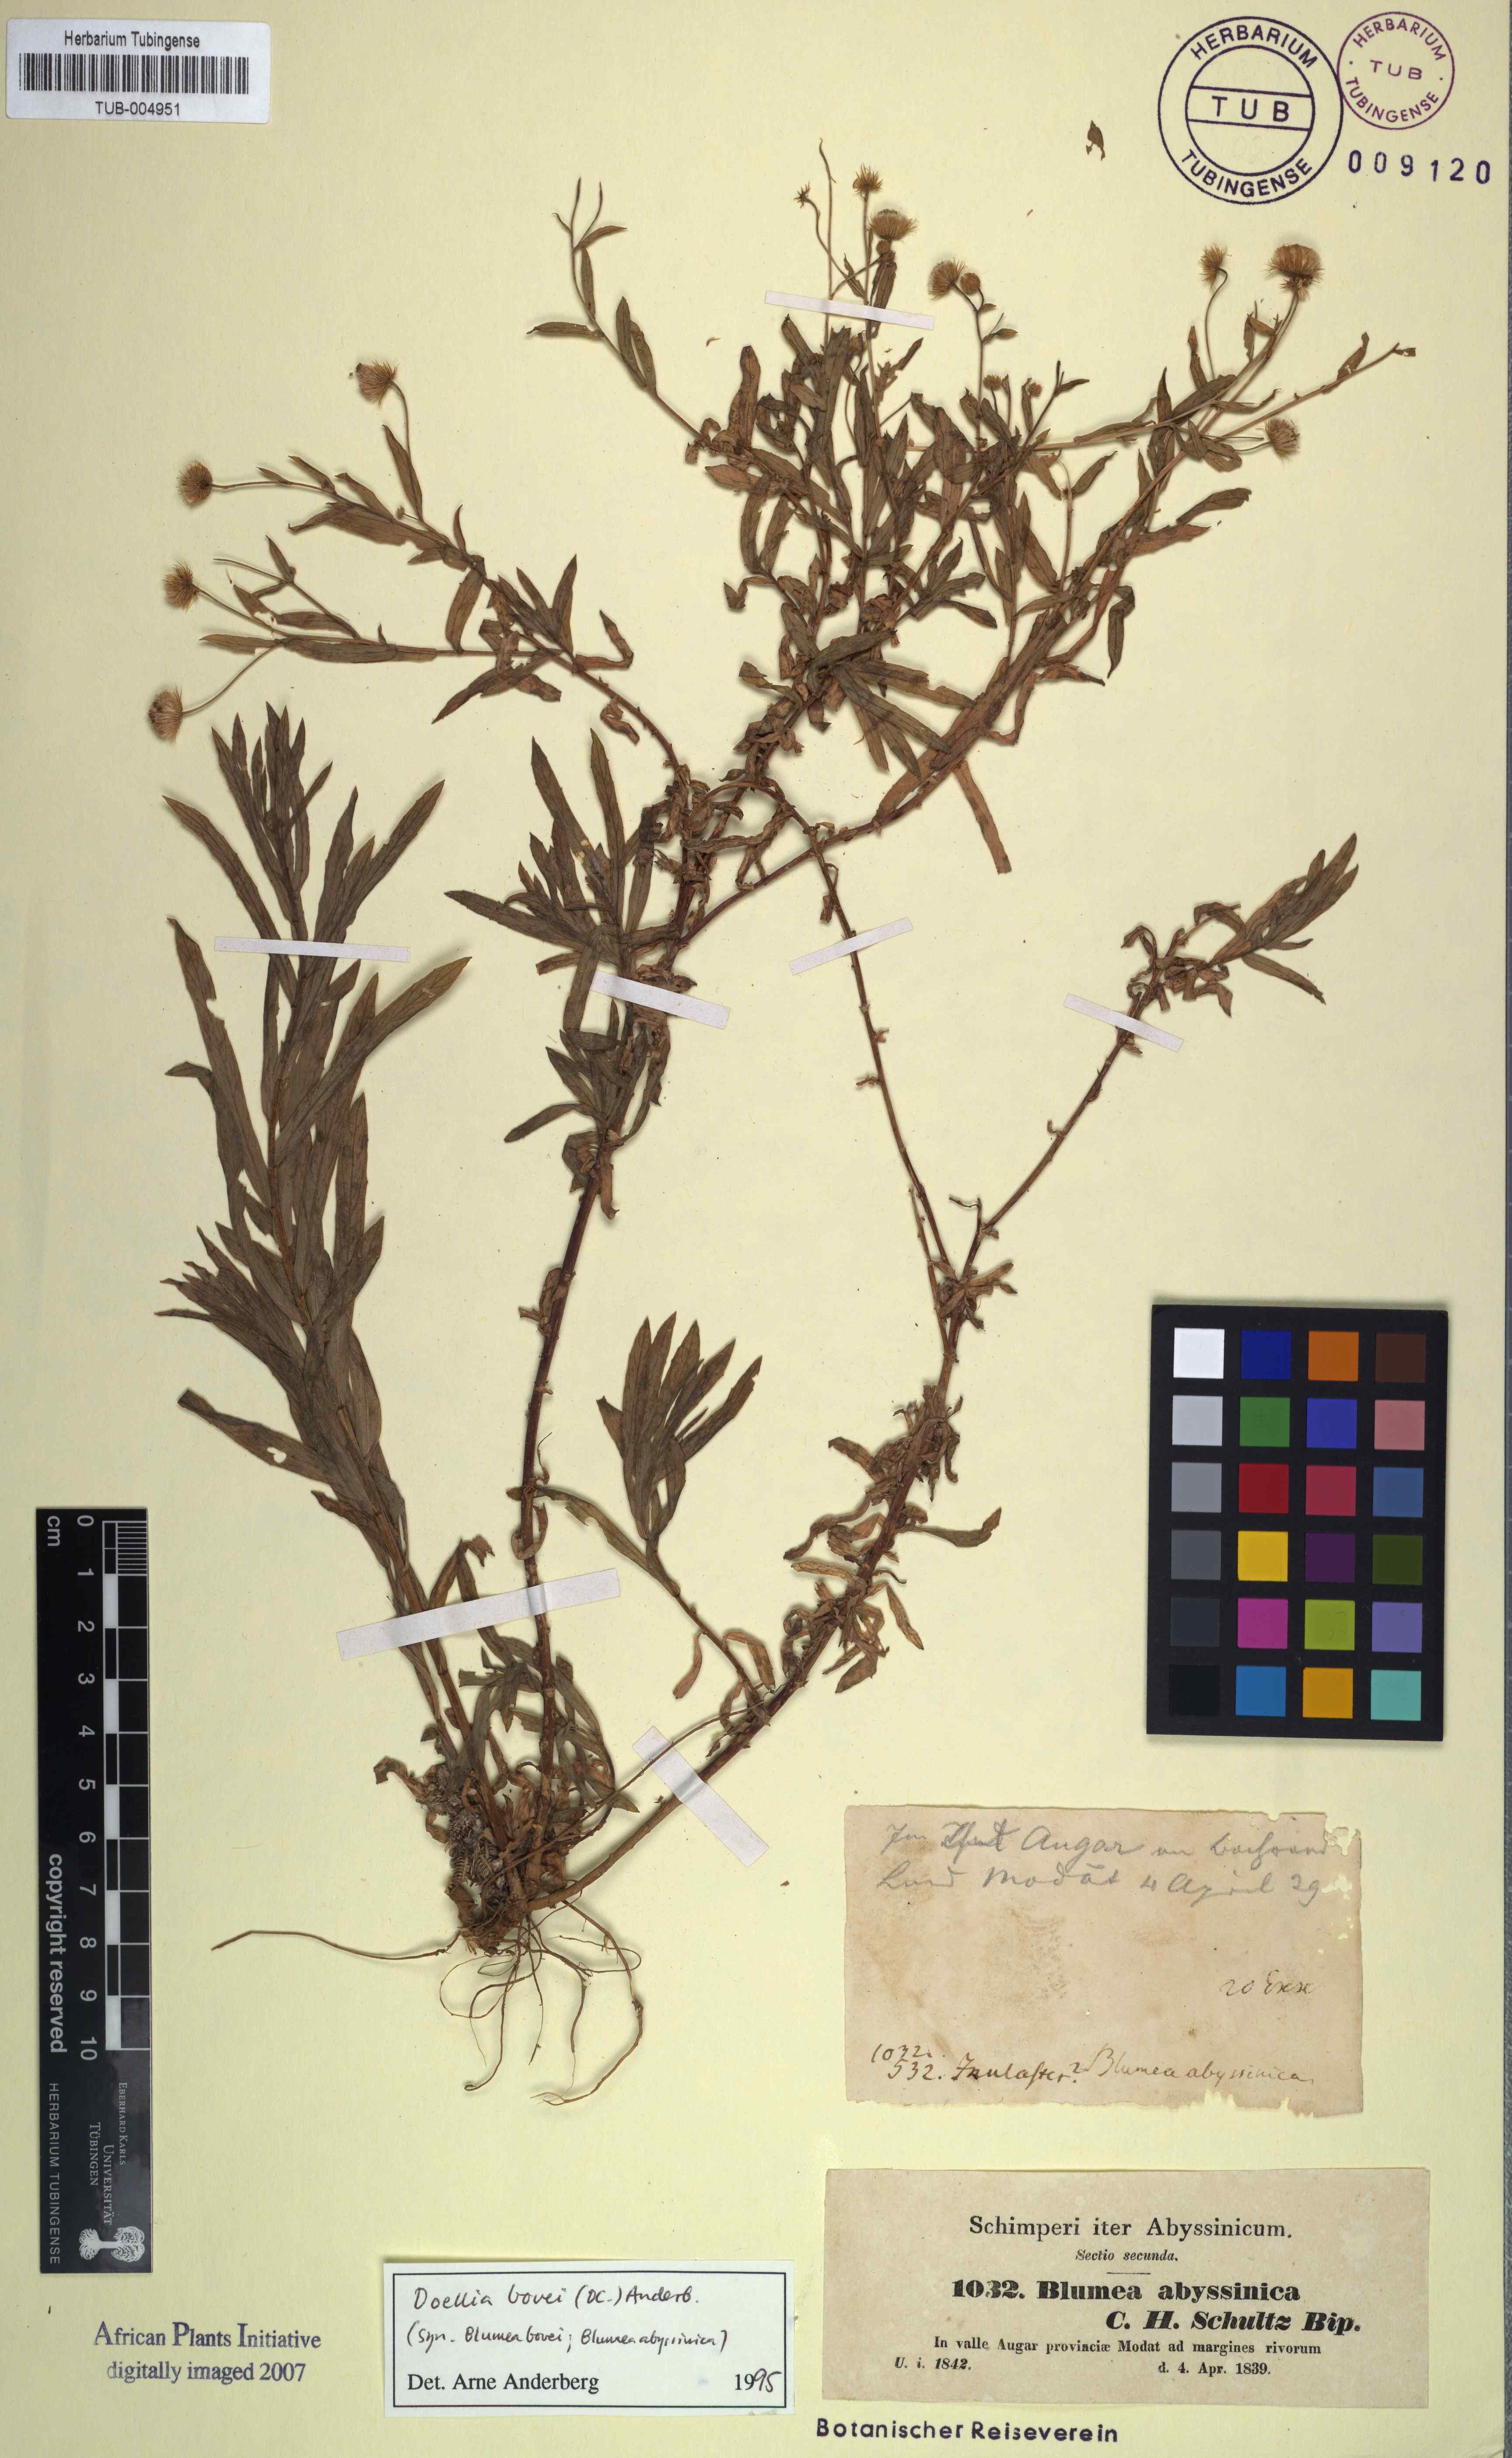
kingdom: Plantae
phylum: Tracheophyta
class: Magnoliopsida
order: Asterales
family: Asteraceae
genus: Doellia
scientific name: Doellia bovei
